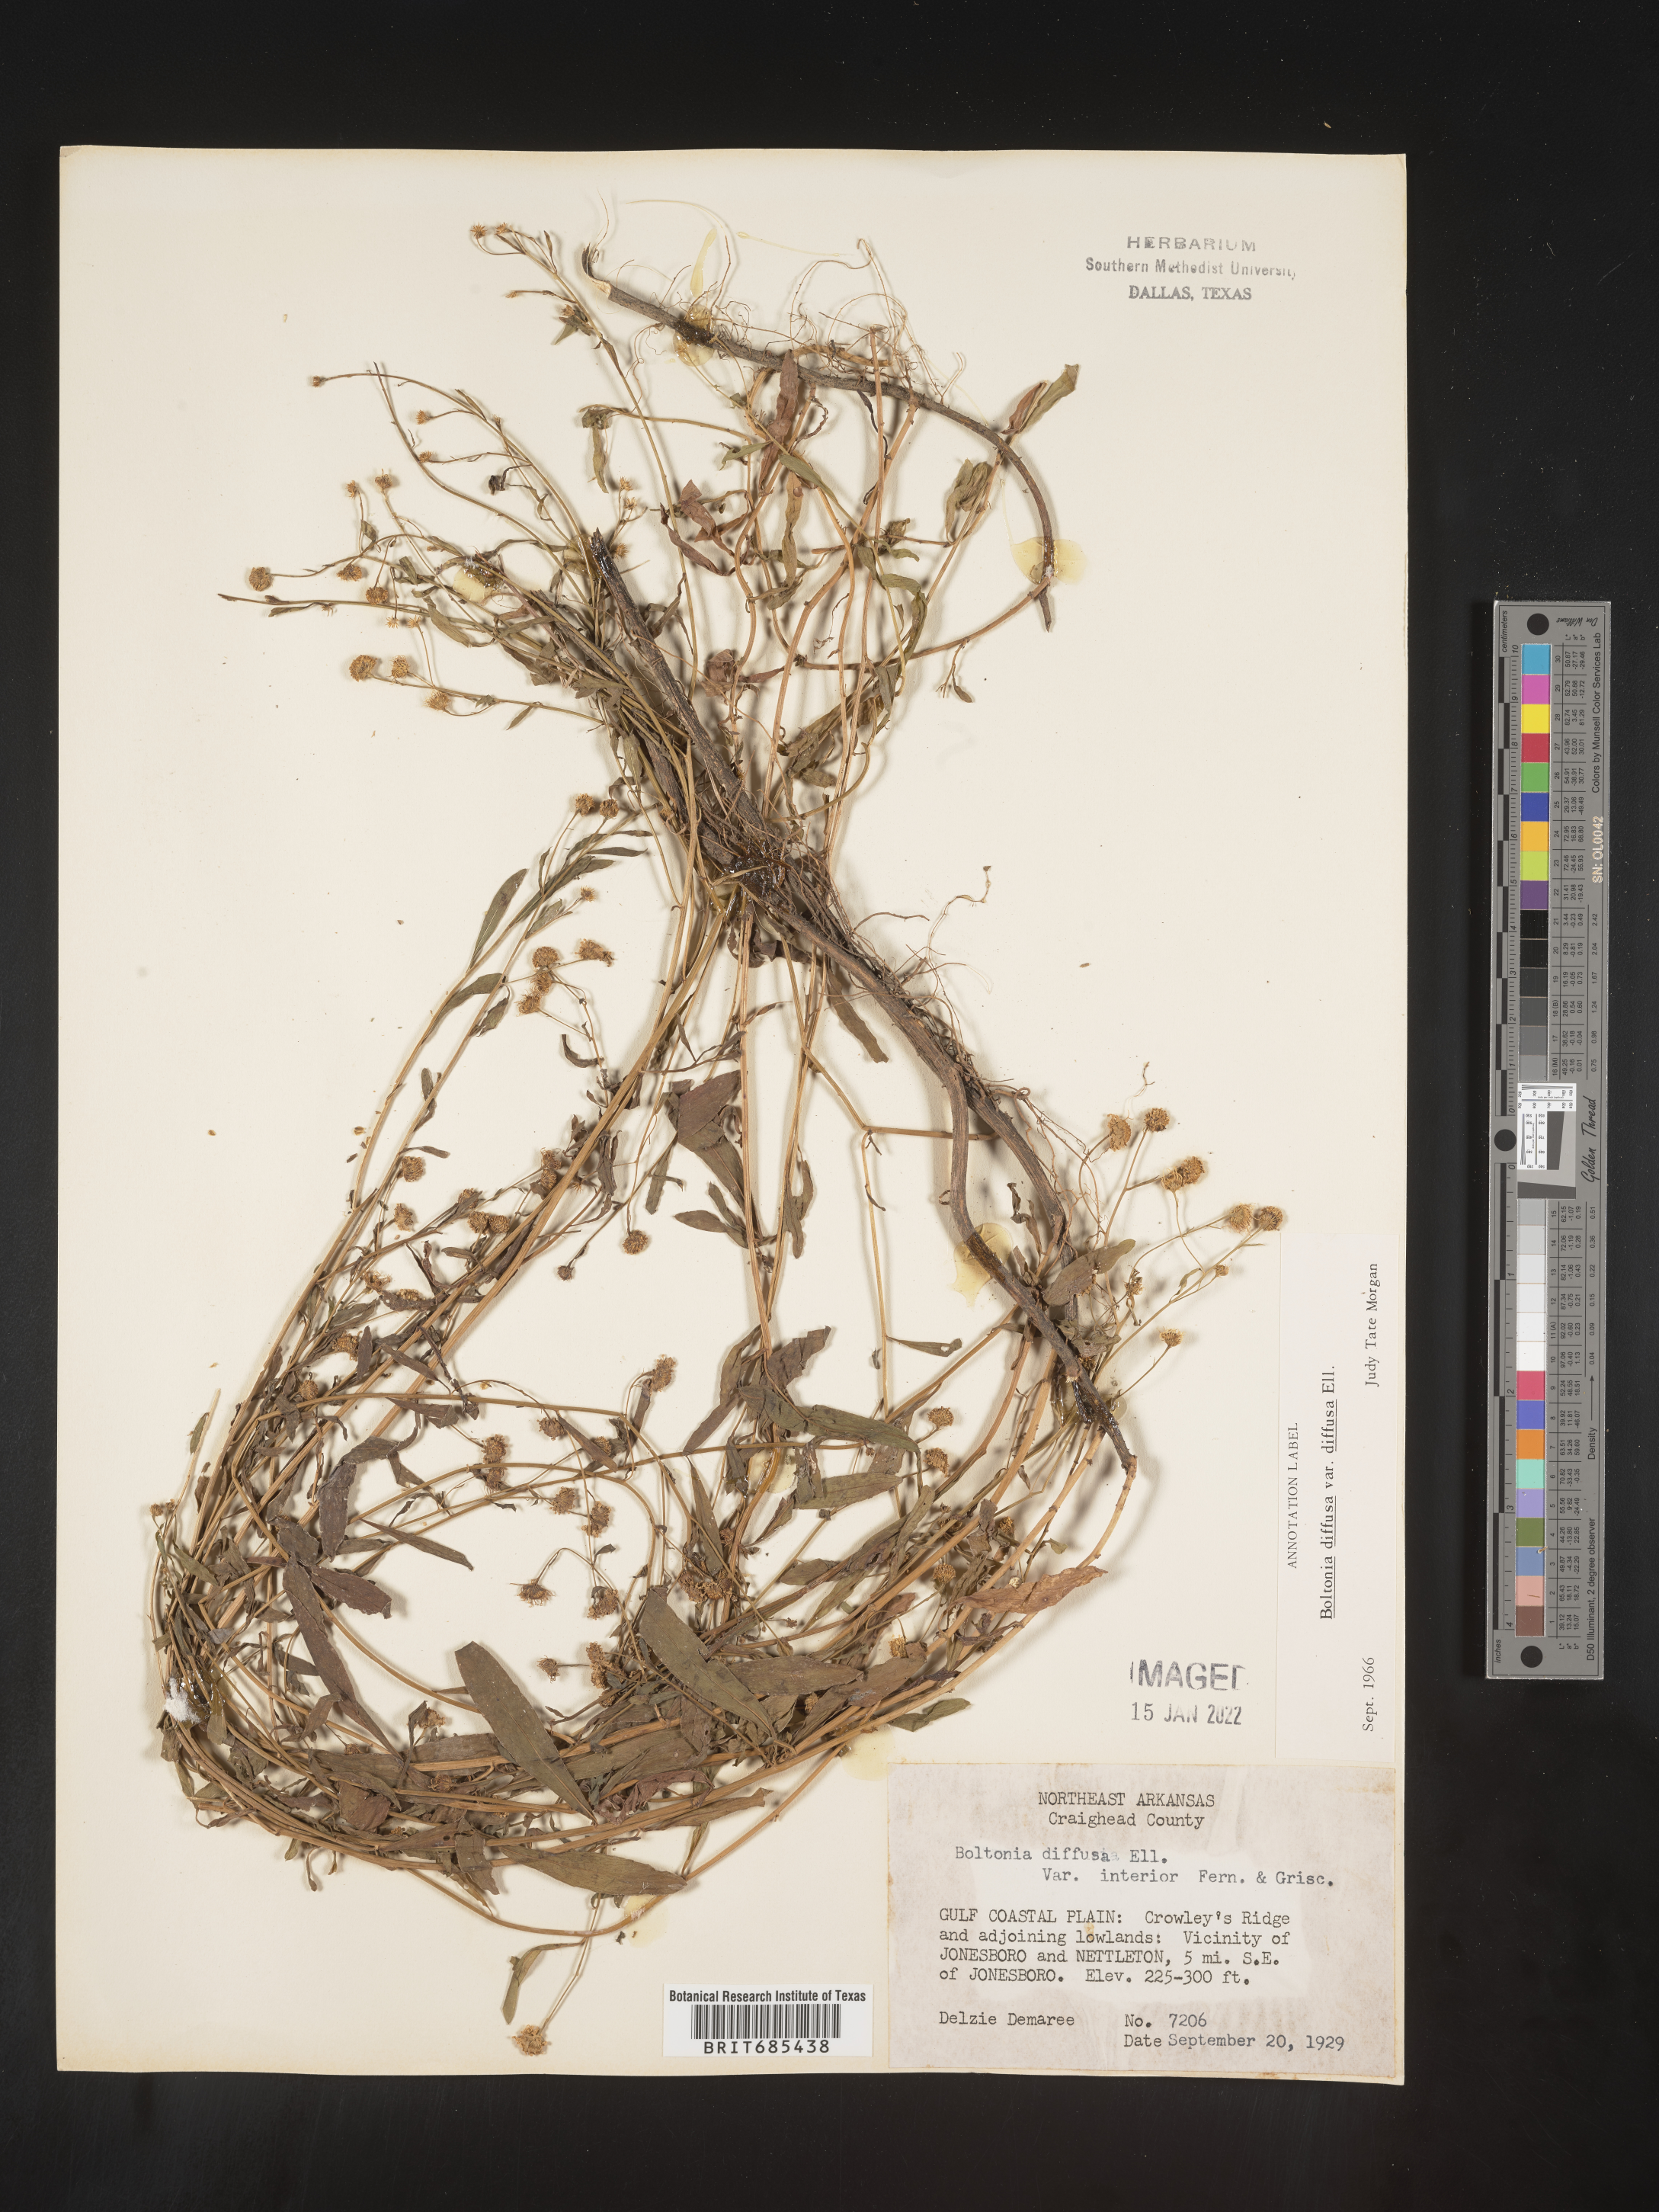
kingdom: Plantae
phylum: Tracheophyta
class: Magnoliopsida
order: Asterales
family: Asteraceae
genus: Boltonia
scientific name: Boltonia diffusa
